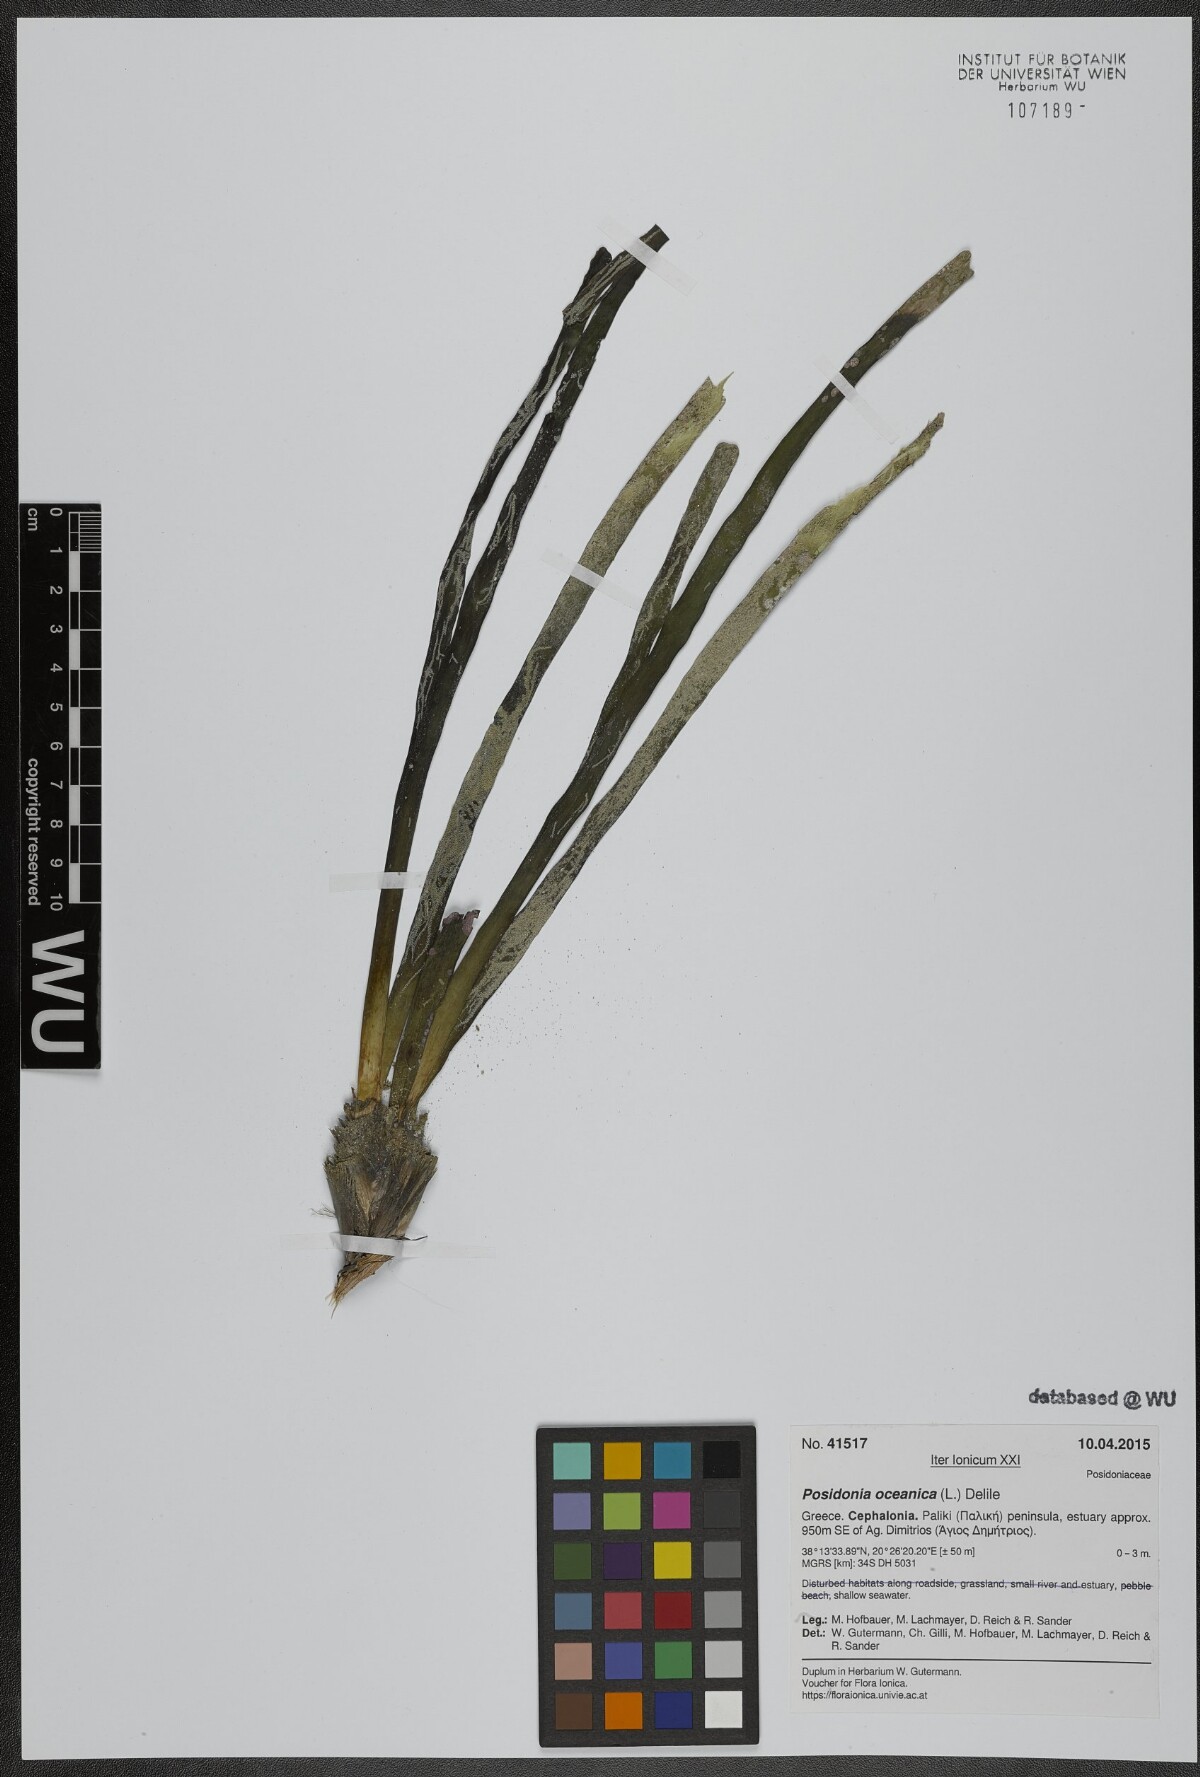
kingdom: Plantae
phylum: Tracheophyta
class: Liliopsida
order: Alismatales
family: Posidoniaceae
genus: Posidonia
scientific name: Posidonia oceanica
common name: Mediterranean tapeweed
